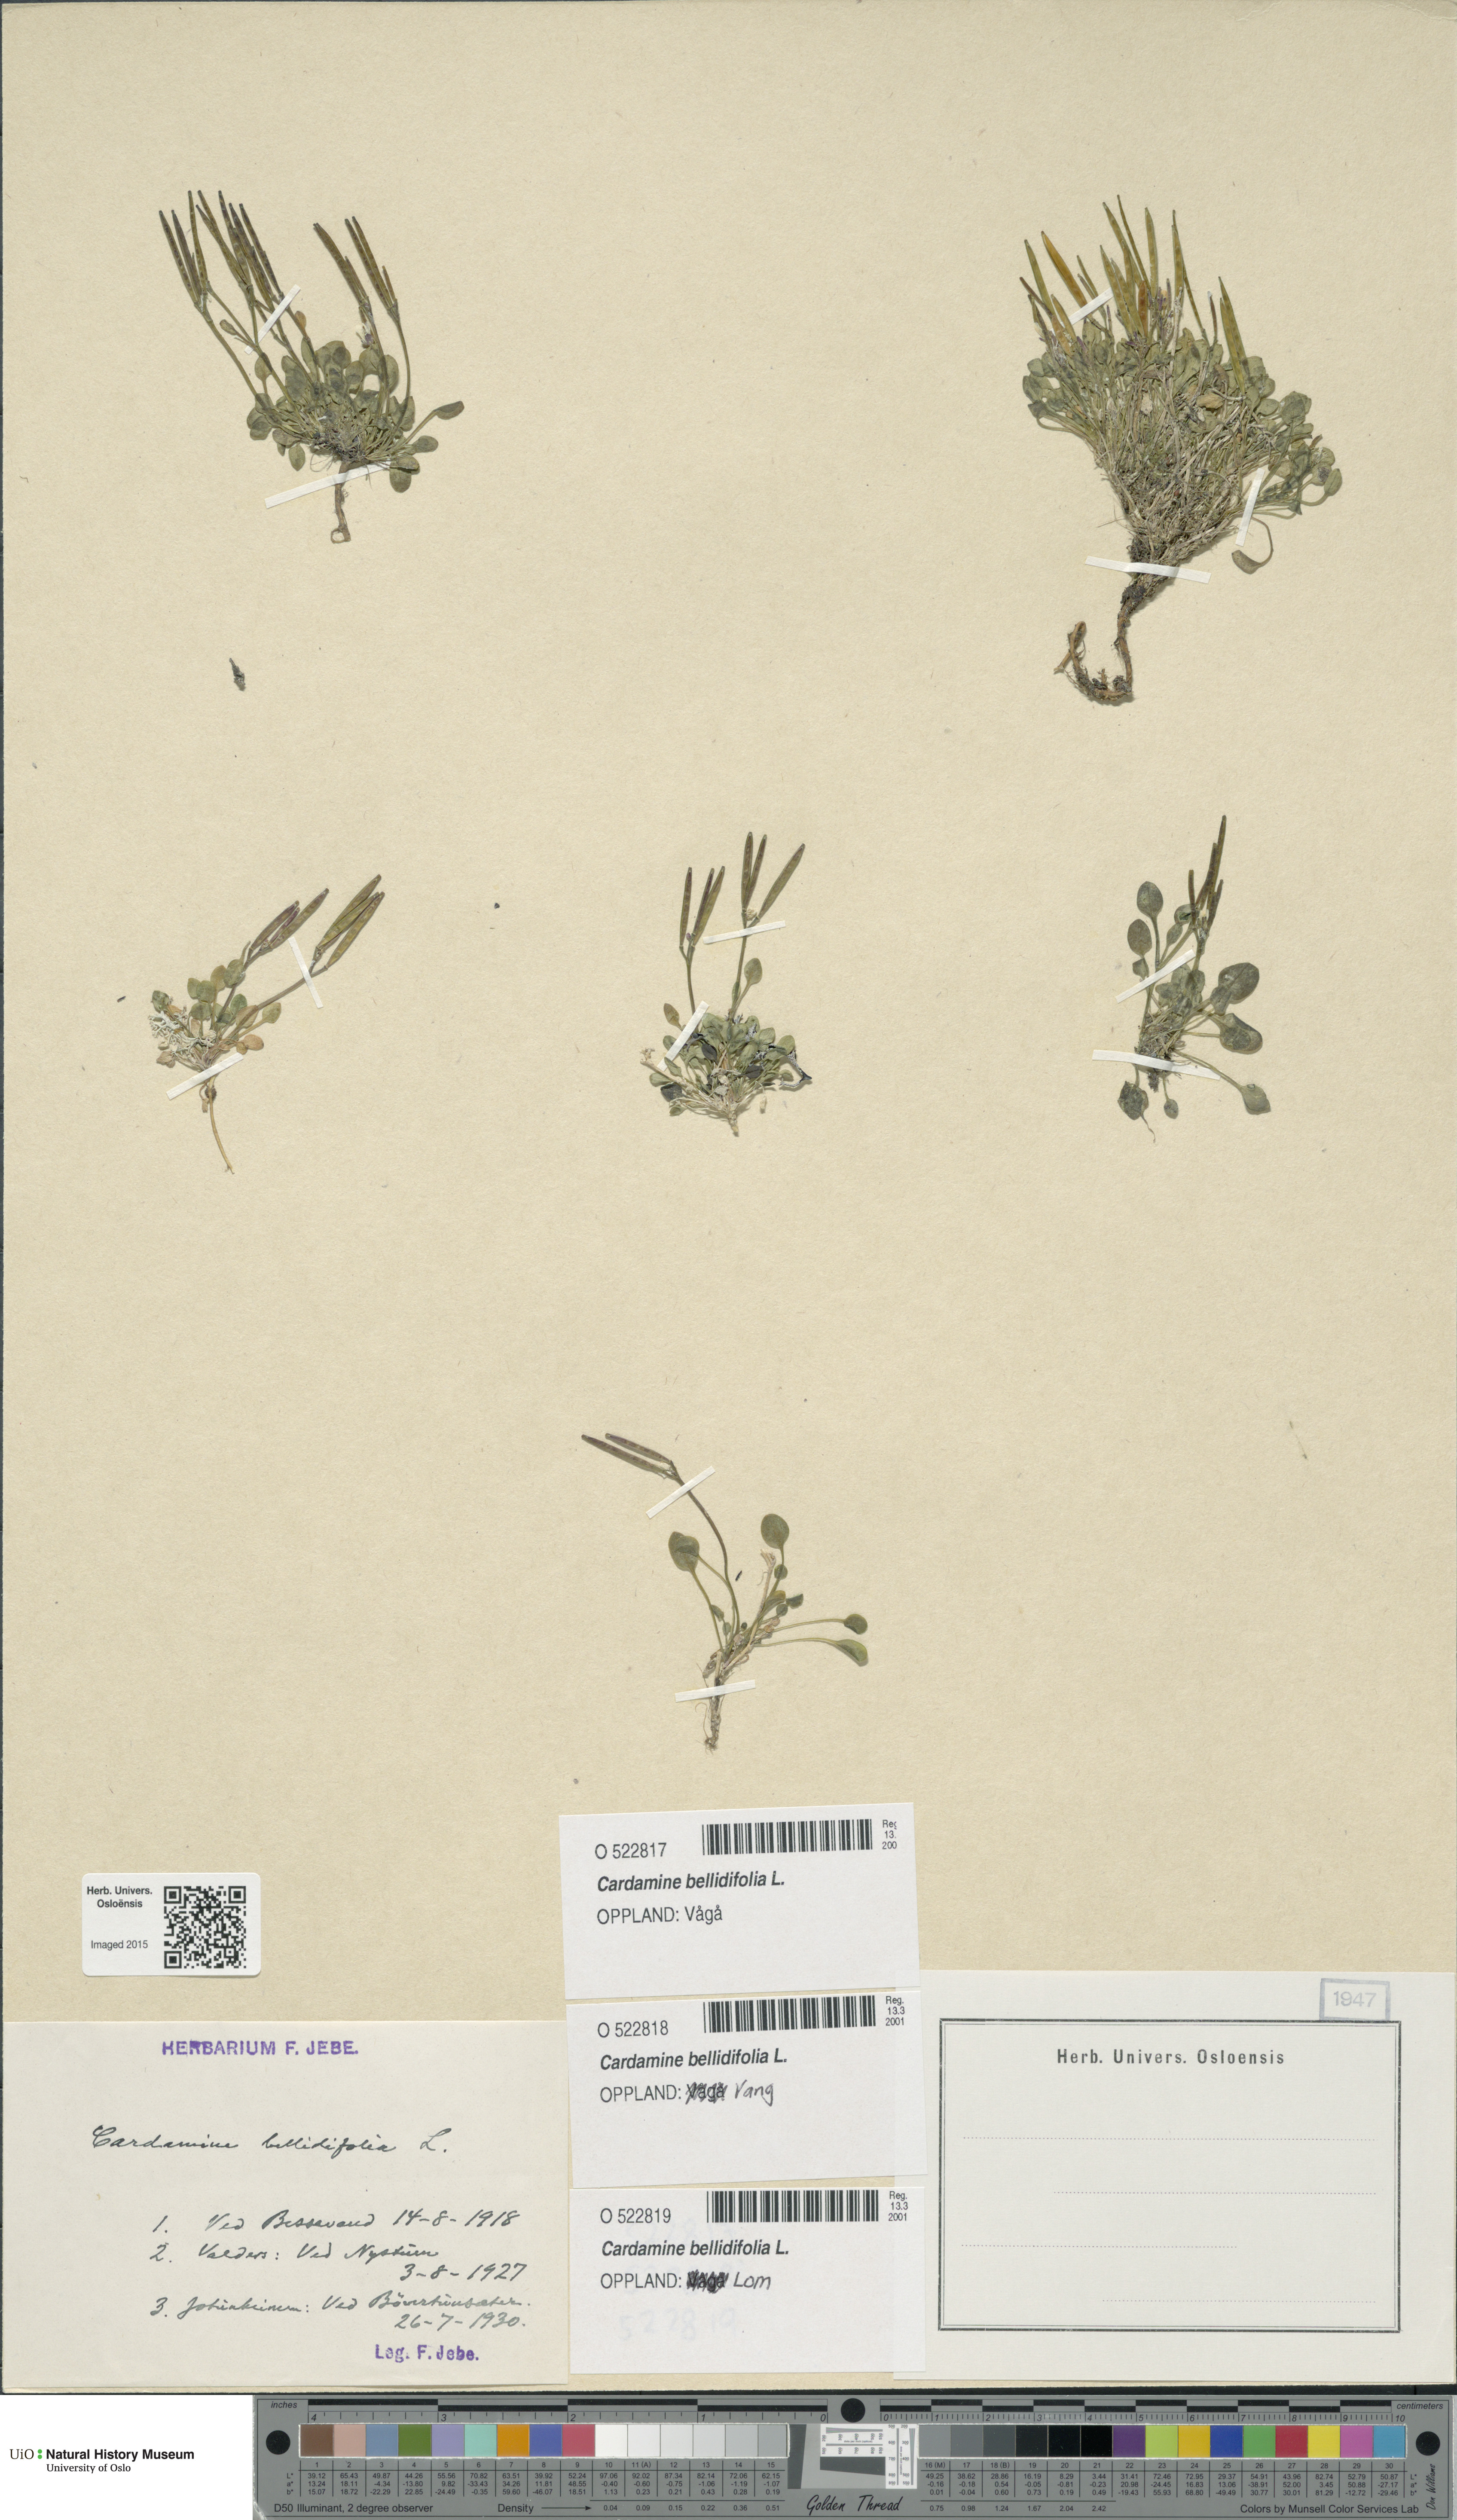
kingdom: Plantae
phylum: Tracheophyta
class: Magnoliopsida
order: Brassicales
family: Brassicaceae
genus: Cardamine
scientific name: Cardamine bellidifolia
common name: Alpine bittercress
